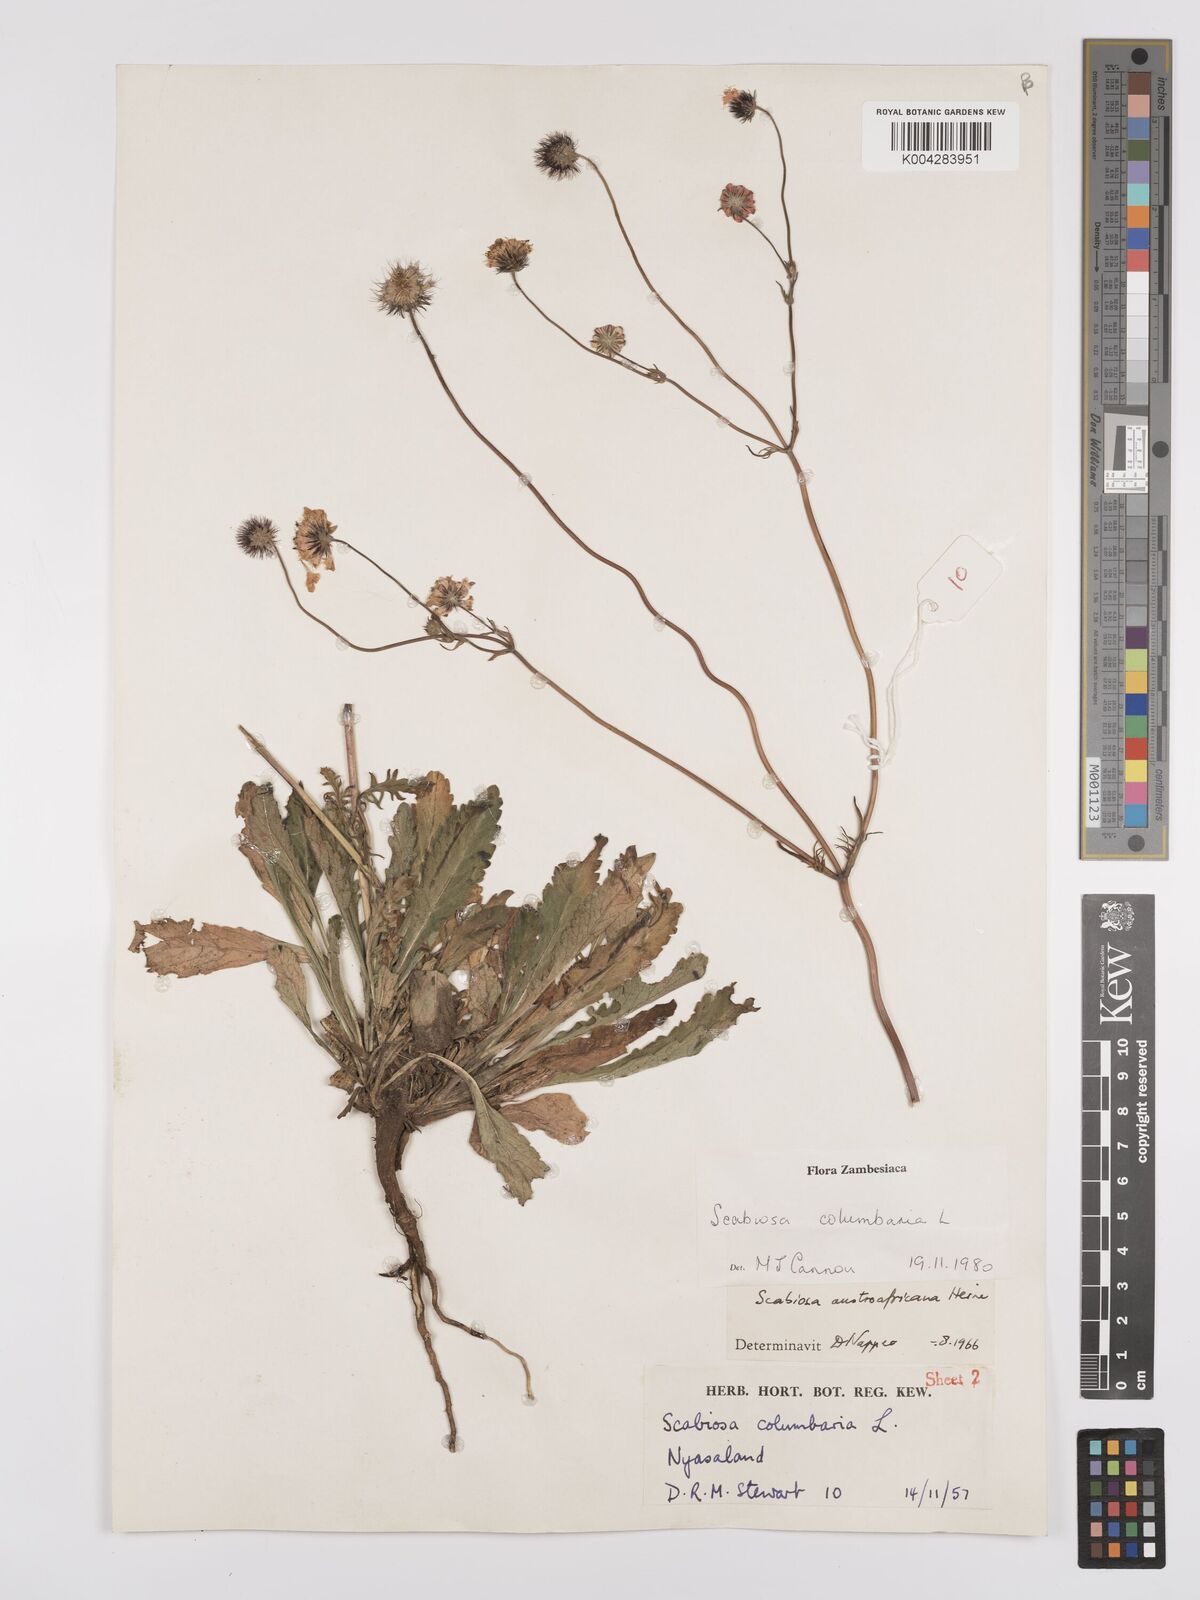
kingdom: Plantae
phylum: Tracheophyta
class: Magnoliopsida
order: Dipsacales
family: Caprifoliaceae
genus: Scabiosa
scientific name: Scabiosa austroafricana
